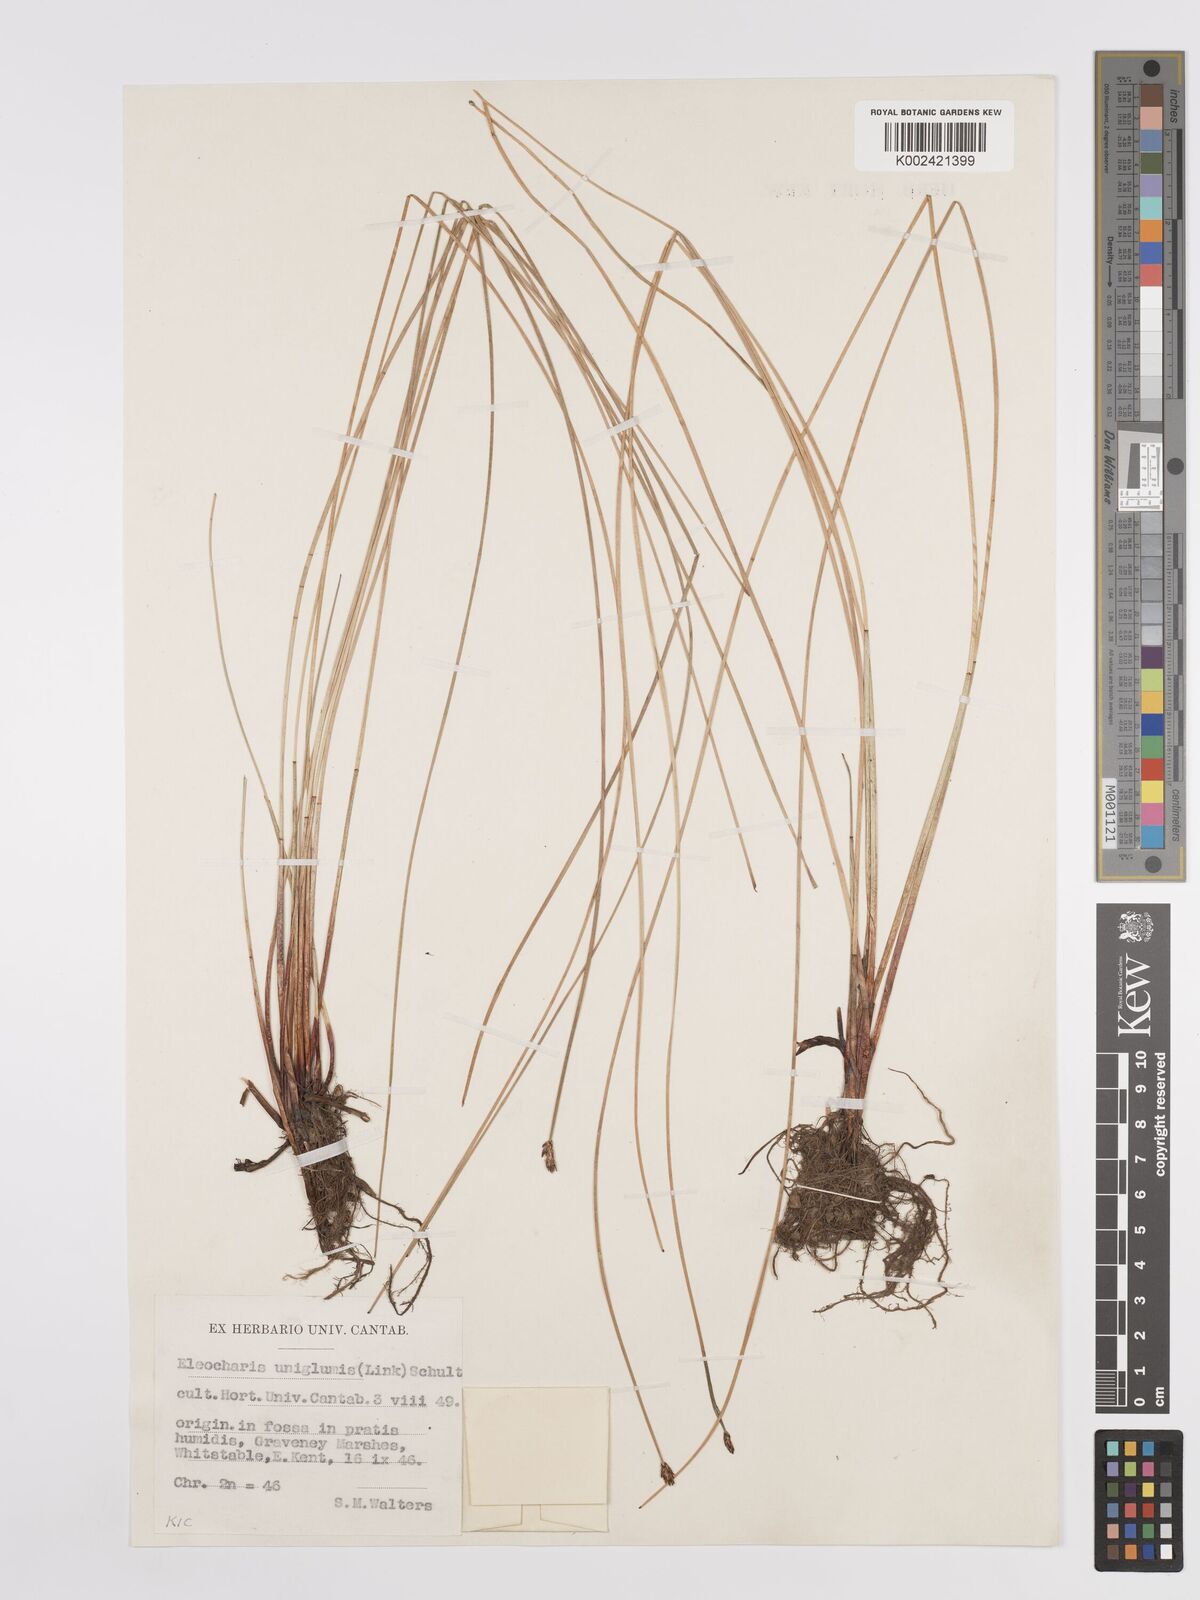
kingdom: Plantae
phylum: Tracheophyta
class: Liliopsida
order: Poales
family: Cyperaceae
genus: Eleocharis
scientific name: Eleocharis uniglumis
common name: Slender spike-rush
